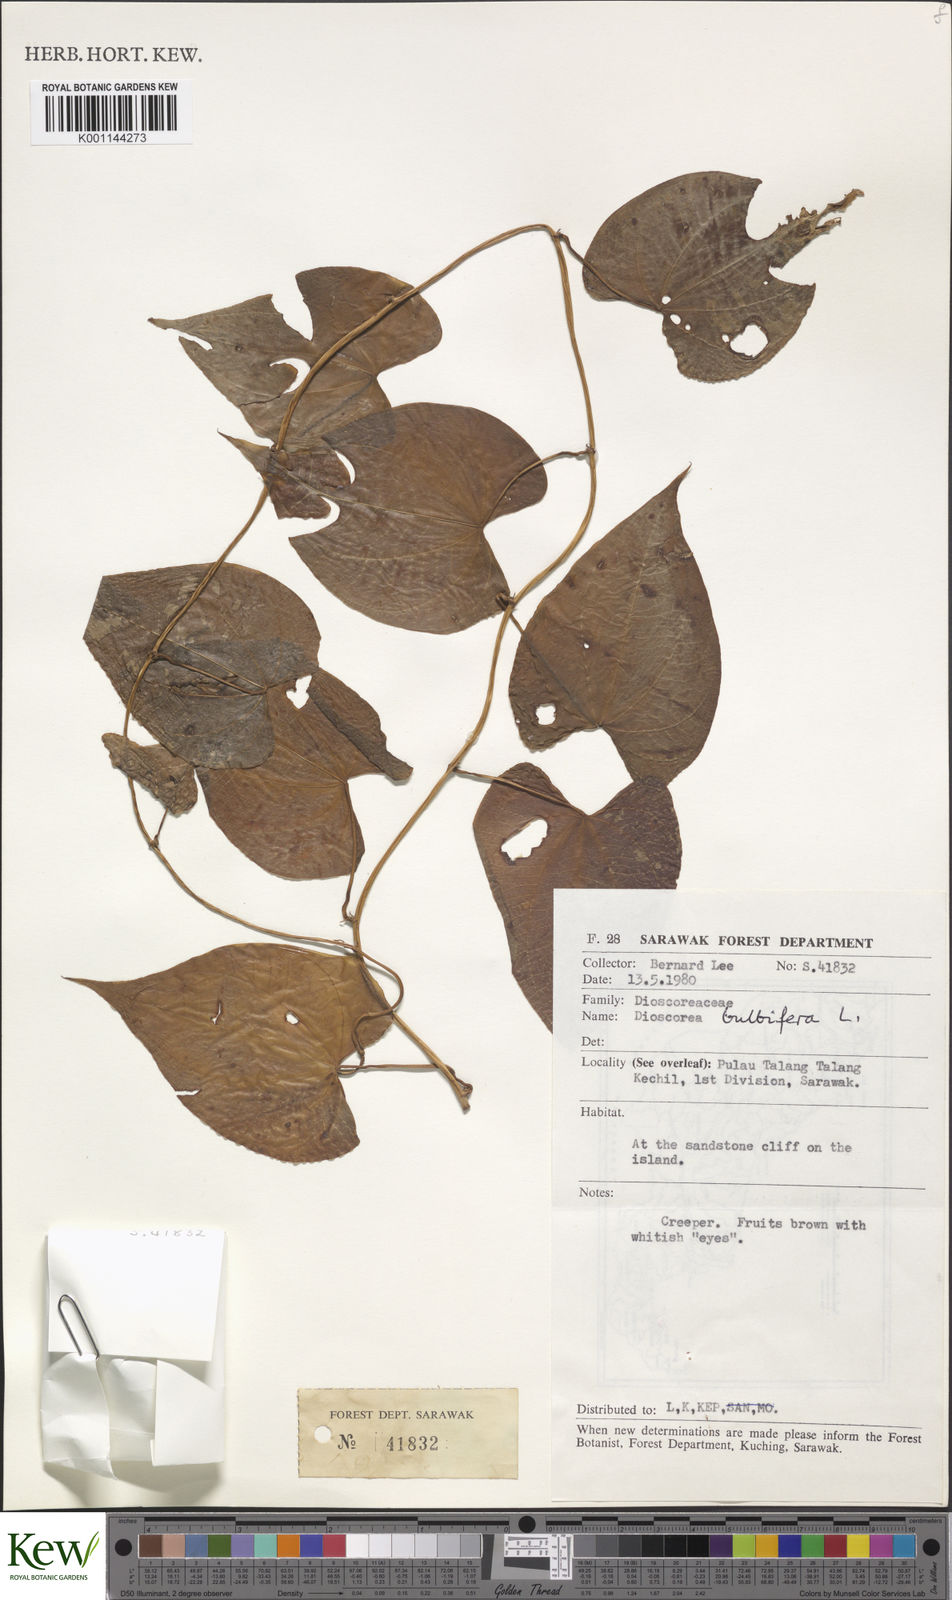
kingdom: Plantae
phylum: Tracheophyta
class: Liliopsida
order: Dioscoreales
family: Dioscoreaceae
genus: Dioscorea
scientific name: Dioscorea bulbifera
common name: Air yam
